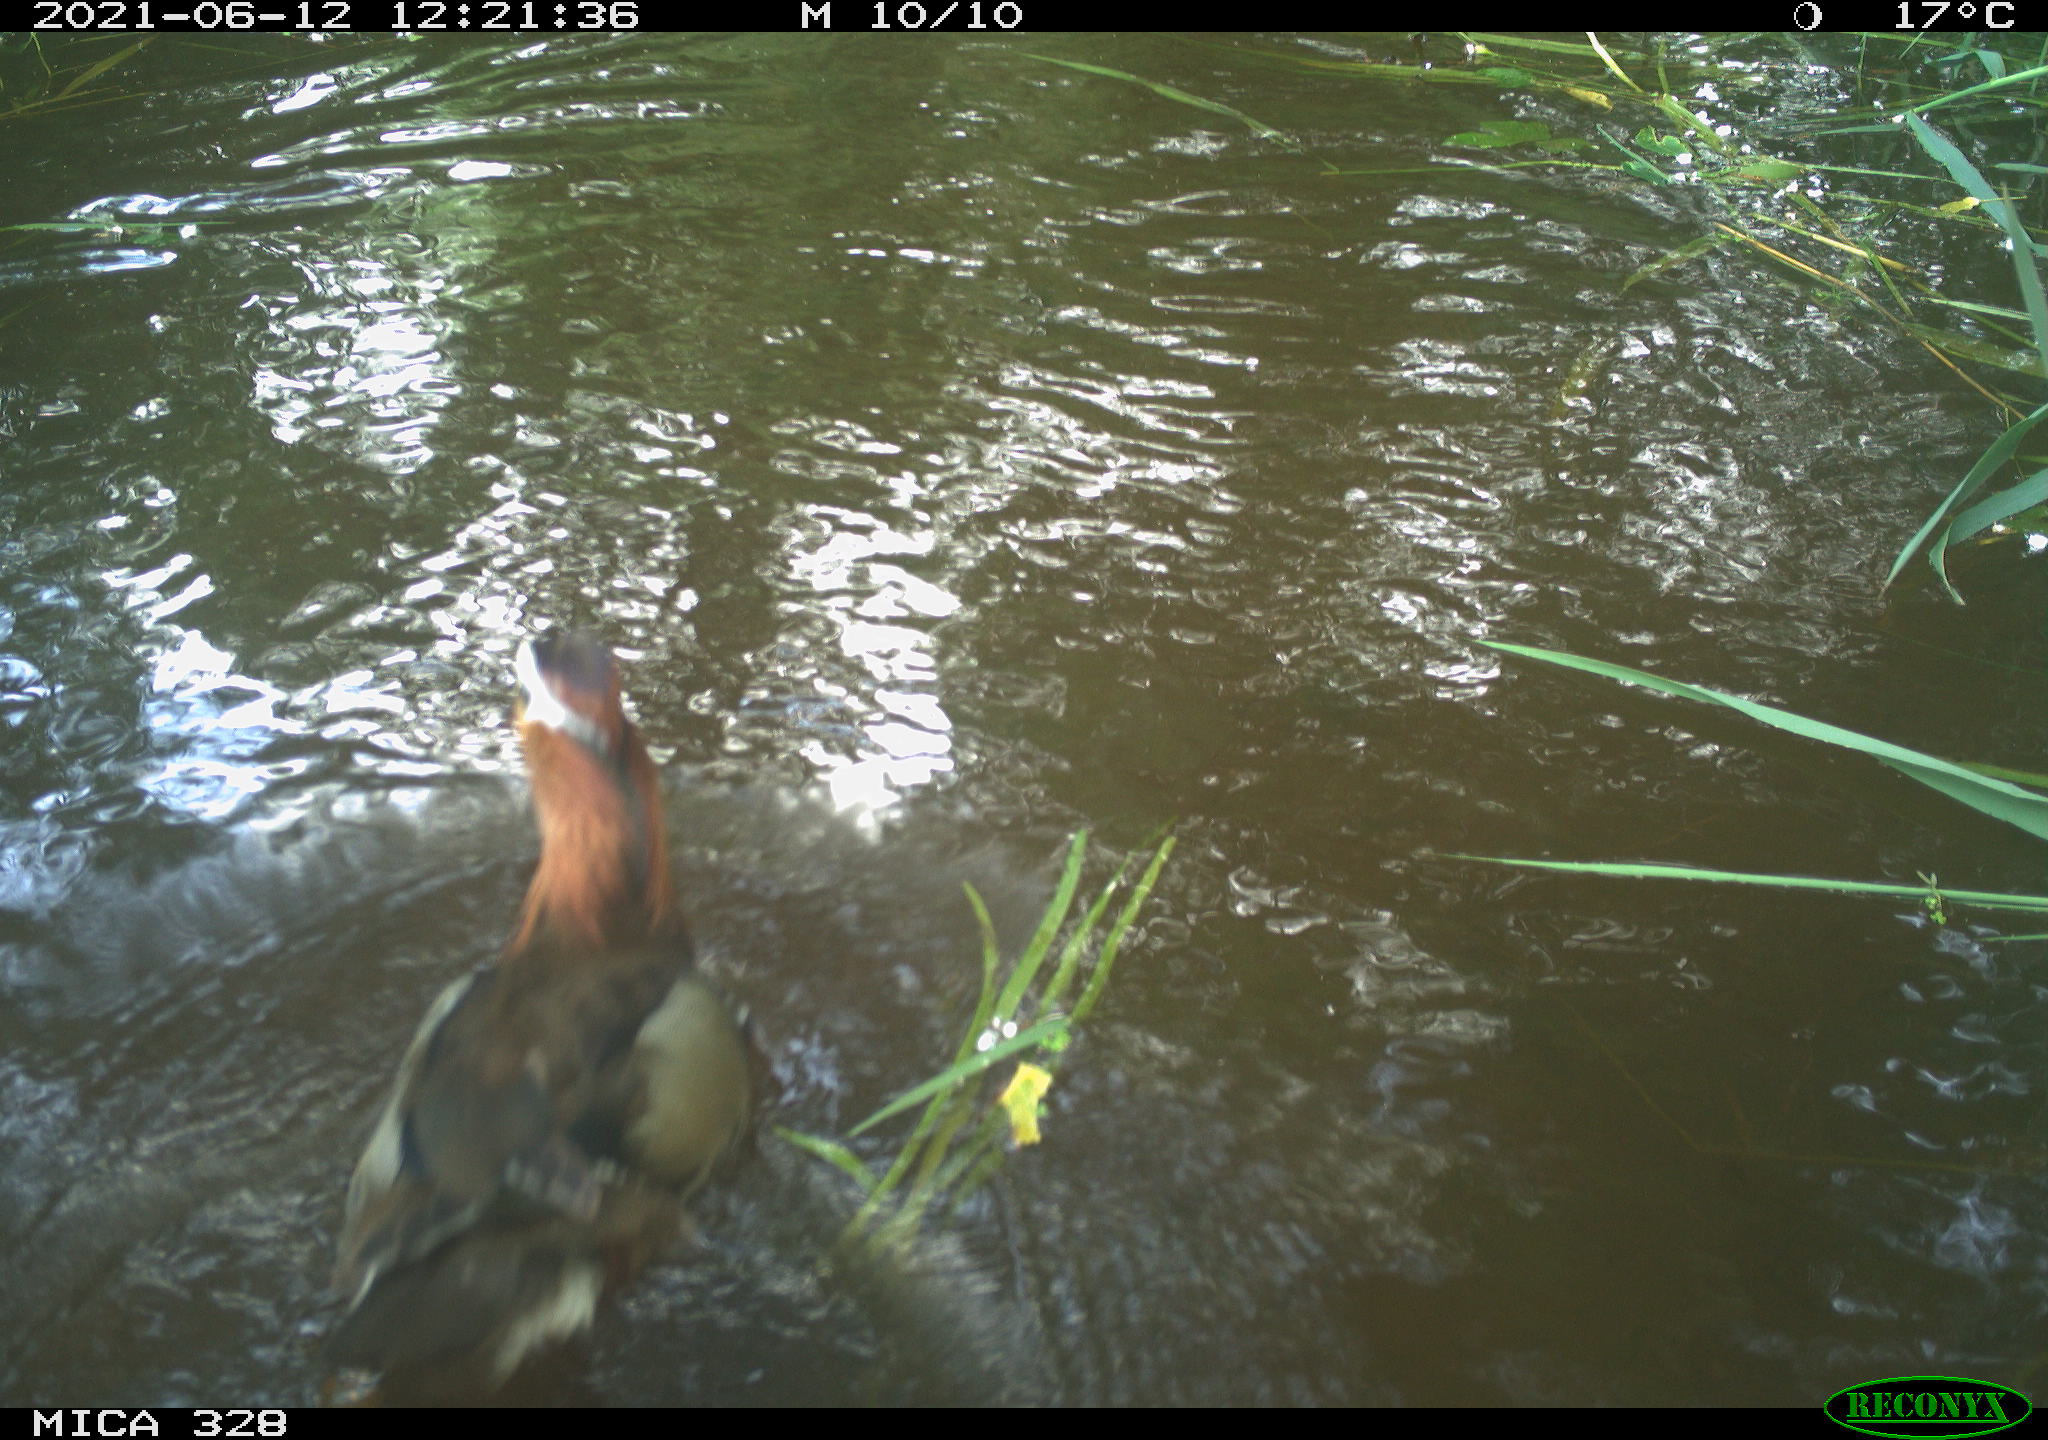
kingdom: Animalia
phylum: Chordata
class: Aves
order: Anseriformes
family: Anatidae
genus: Aix
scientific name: Aix galericulata
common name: Mandarin duck
